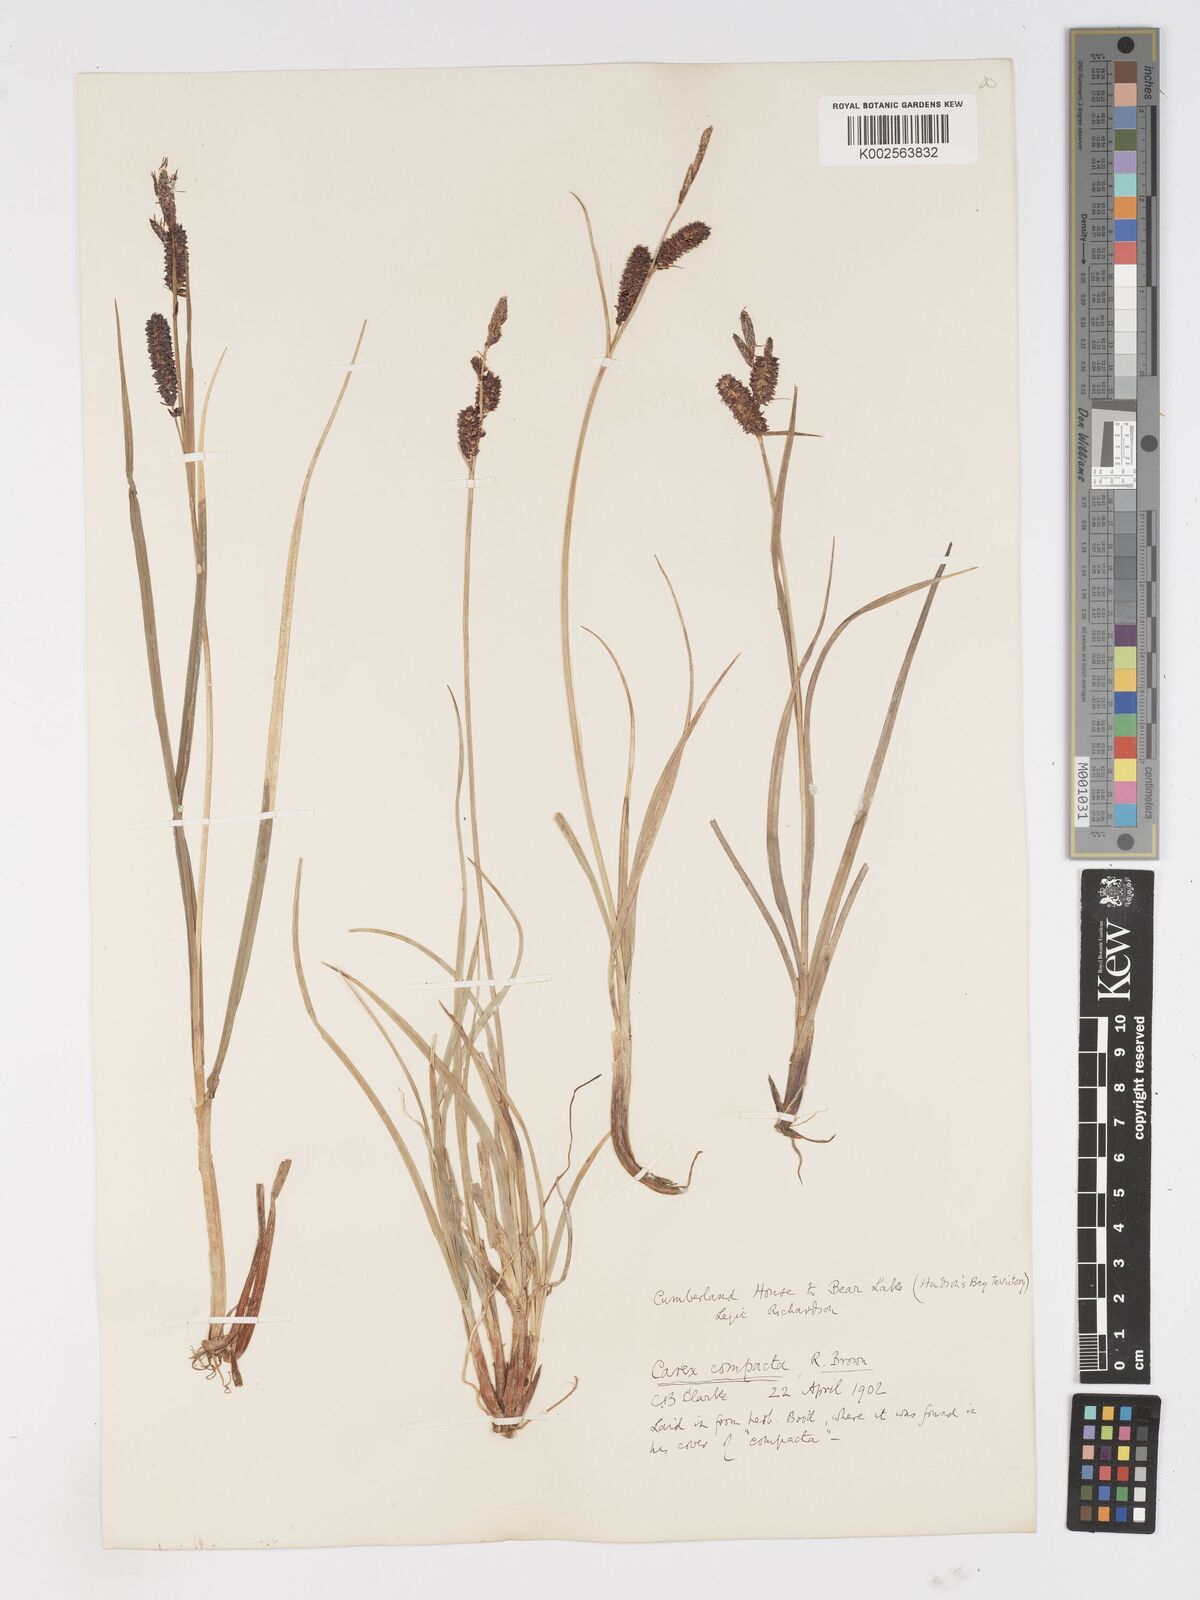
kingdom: Plantae
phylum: Tracheophyta
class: Liliopsida
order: Poales
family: Cyperaceae
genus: Carex
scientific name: Carex membranacea
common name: Fragile sedge
